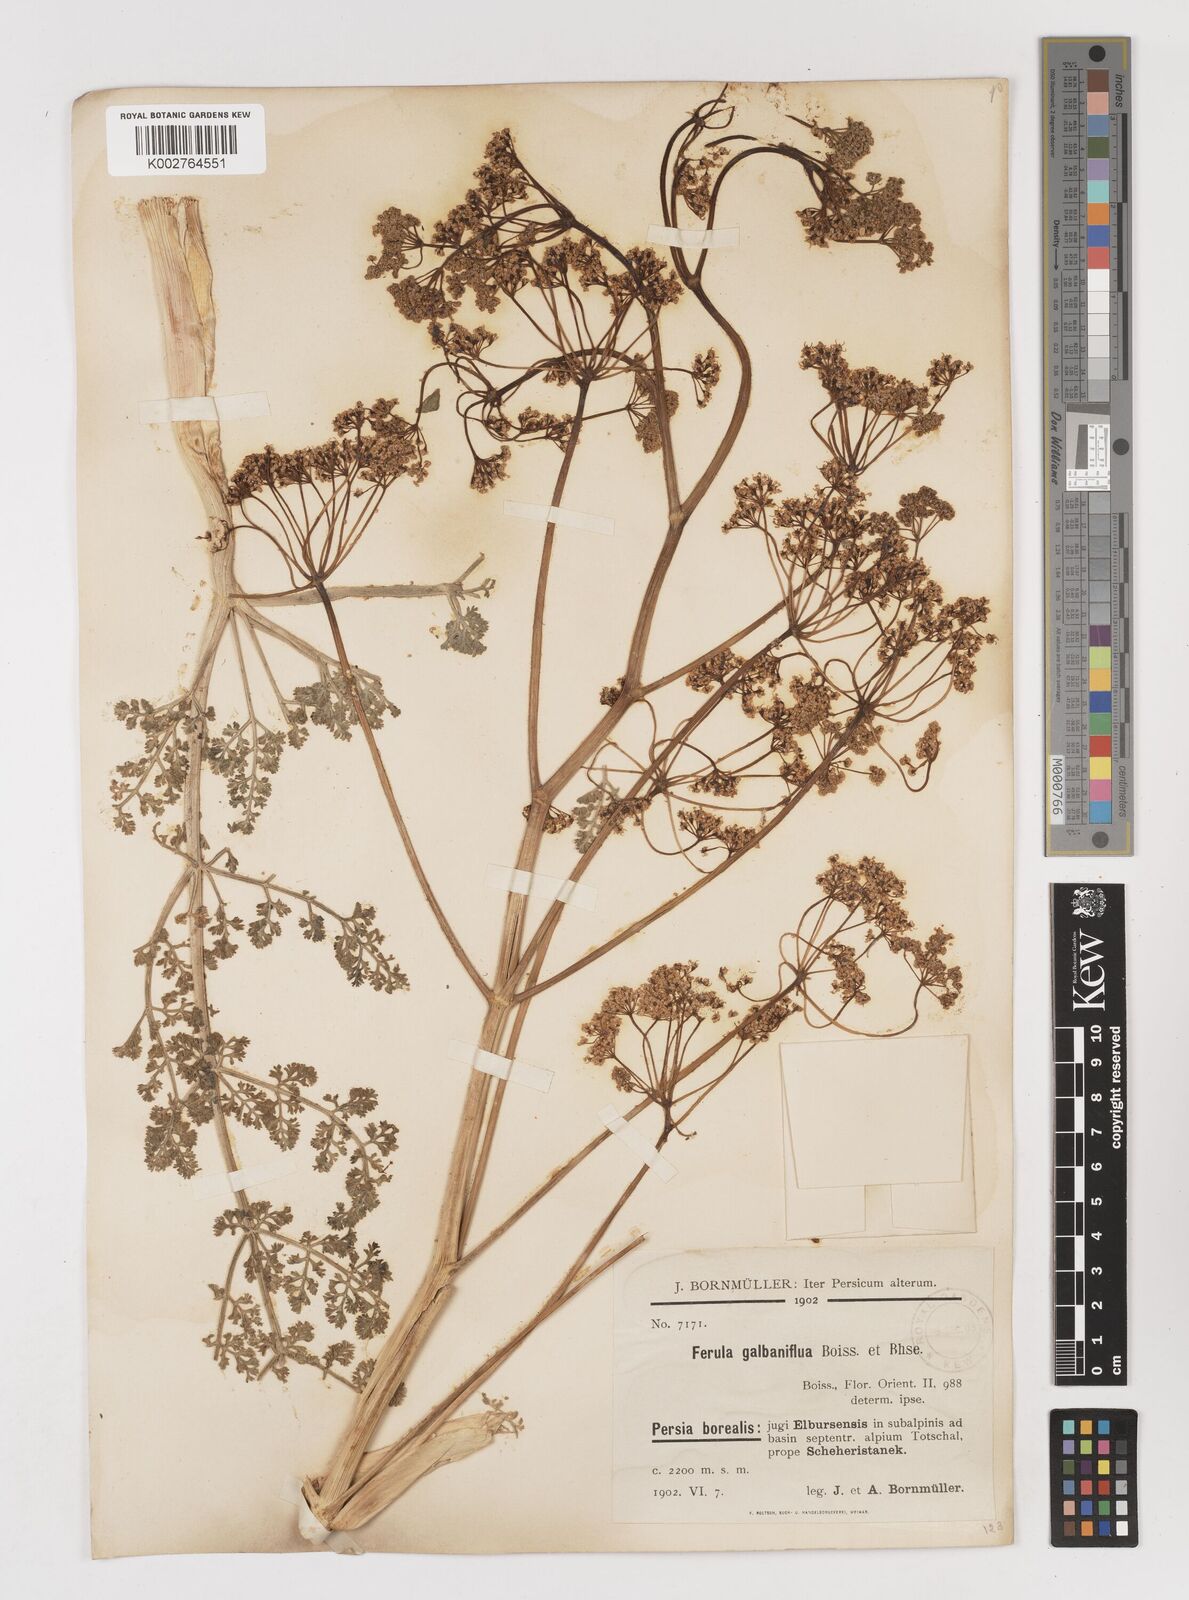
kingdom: Plantae
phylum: Tracheophyta
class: Magnoliopsida
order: Apiales
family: Apiaceae
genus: Ferula
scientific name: Ferula gummosa
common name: Galbanum
